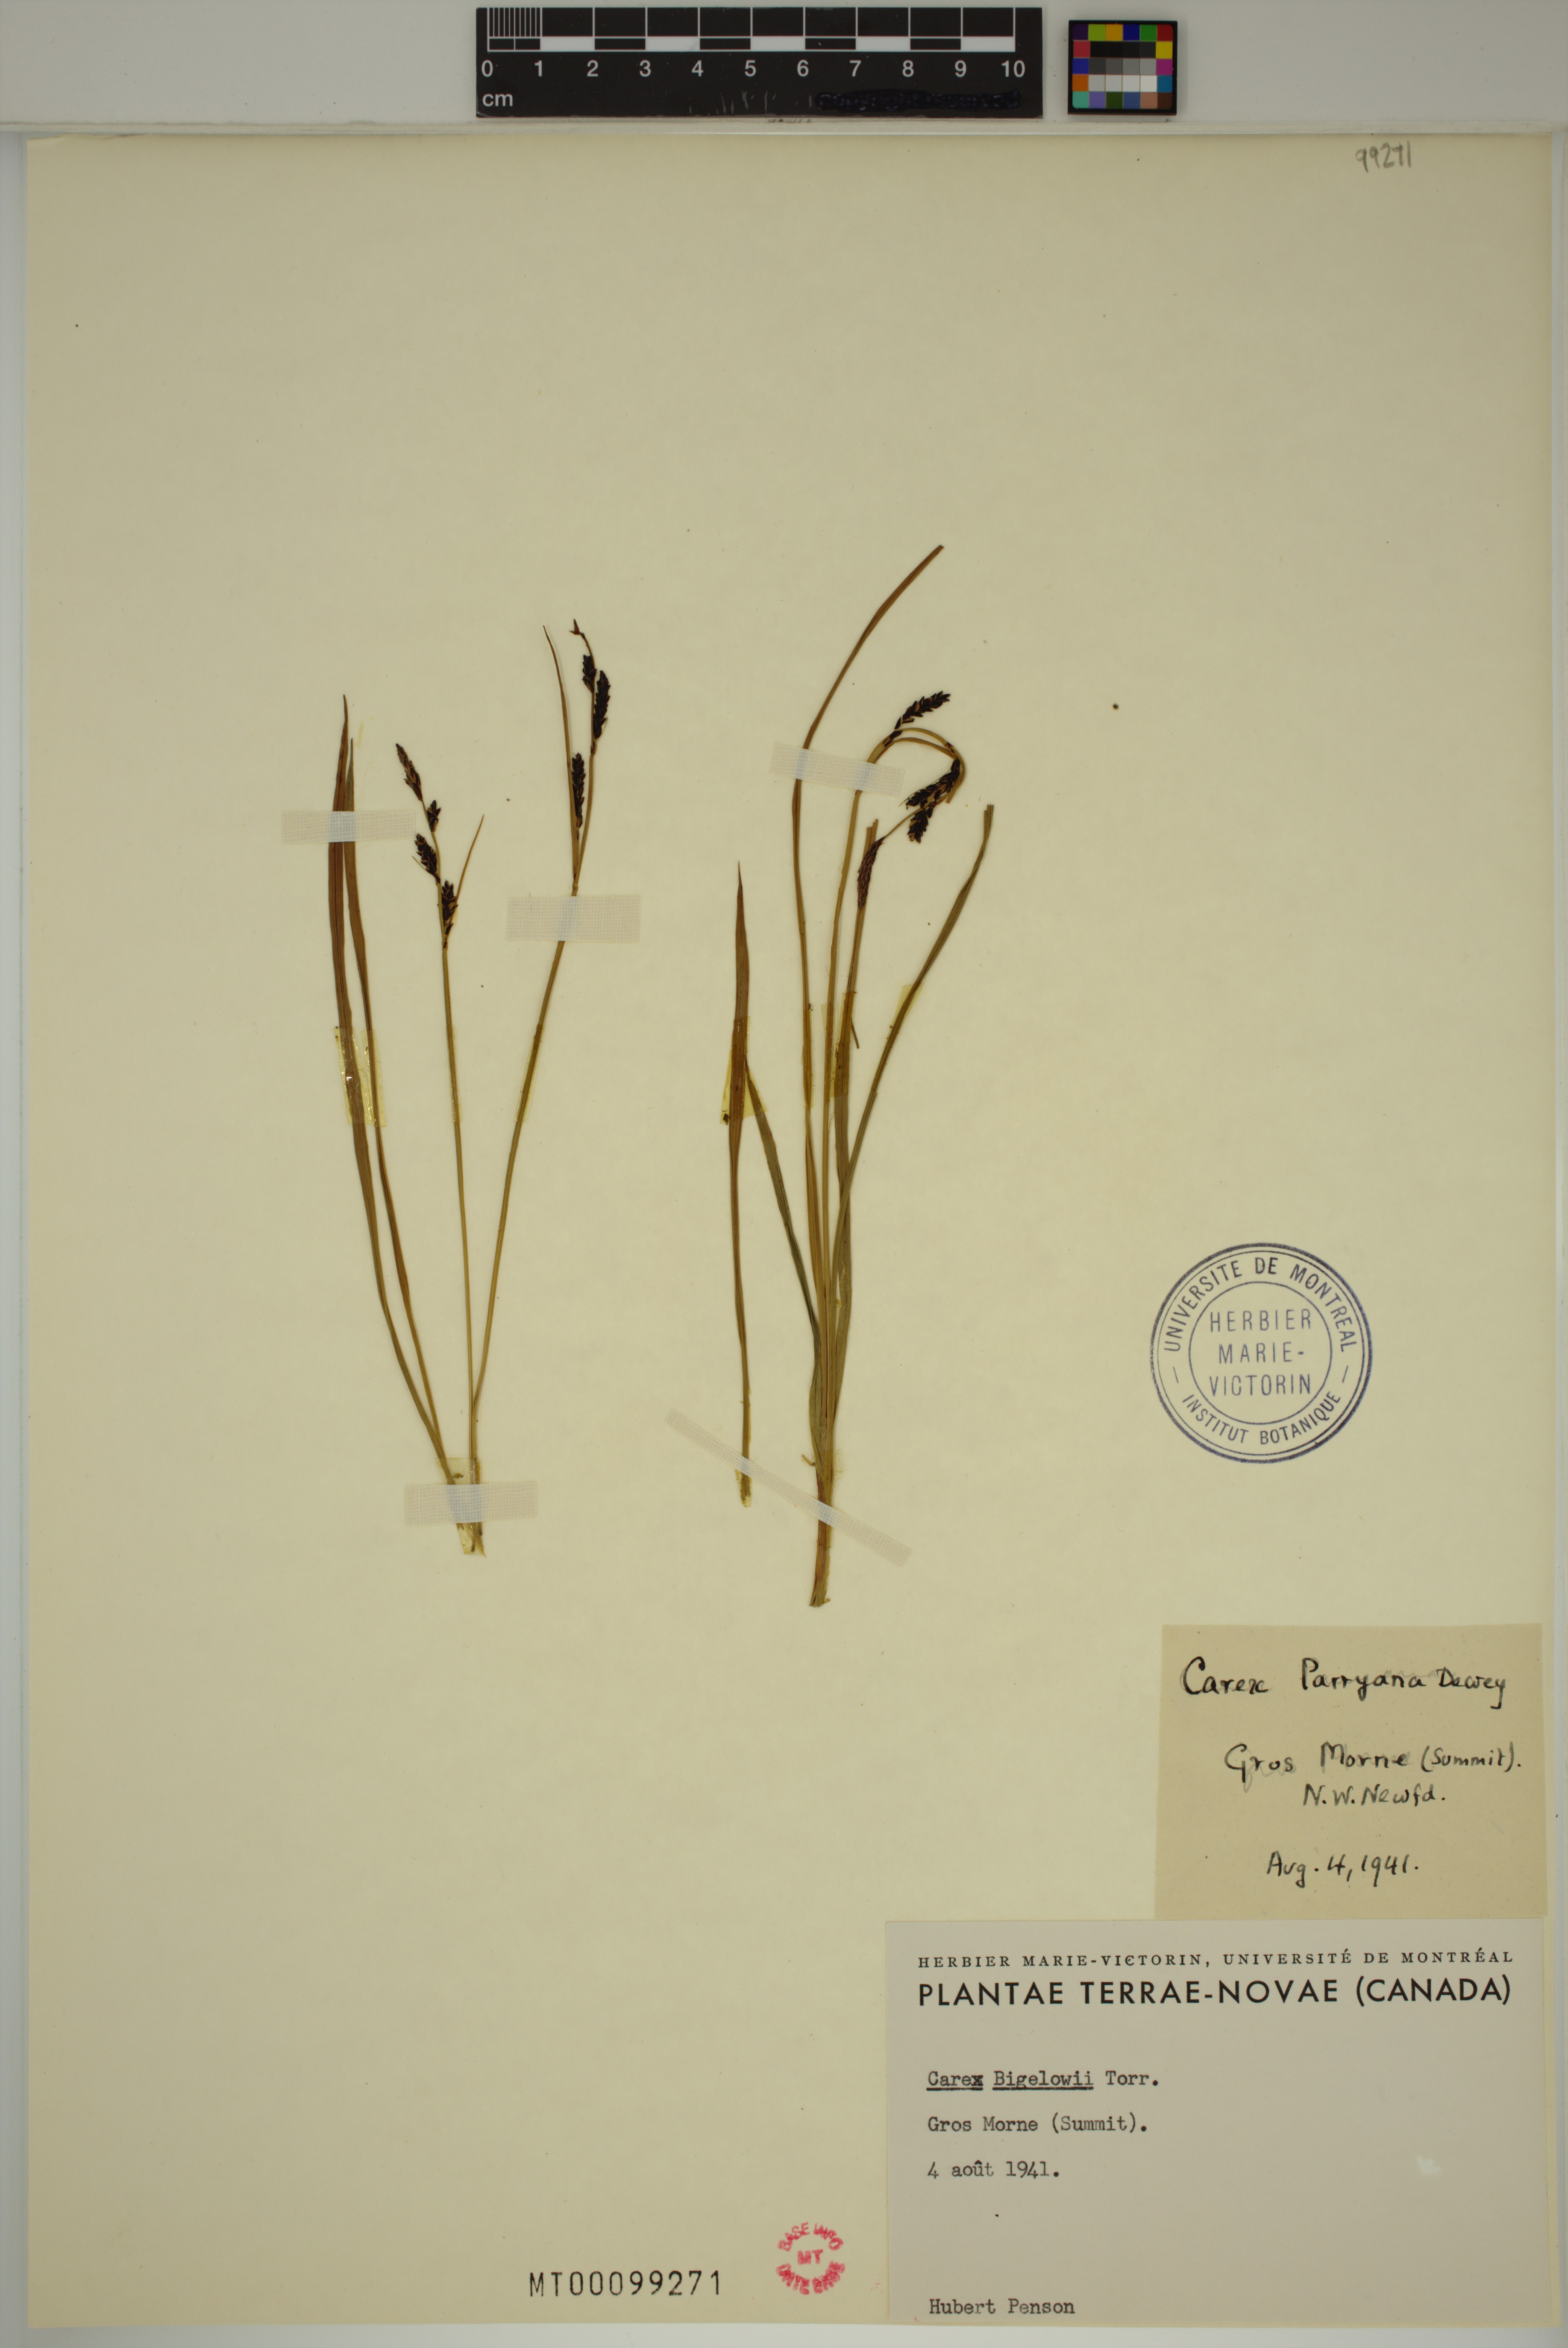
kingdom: Plantae
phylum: Tracheophyta
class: Liliopsida
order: Poales
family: Cyperaceae
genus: Carex
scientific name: Carex bigelowii
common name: Stiff sedge
